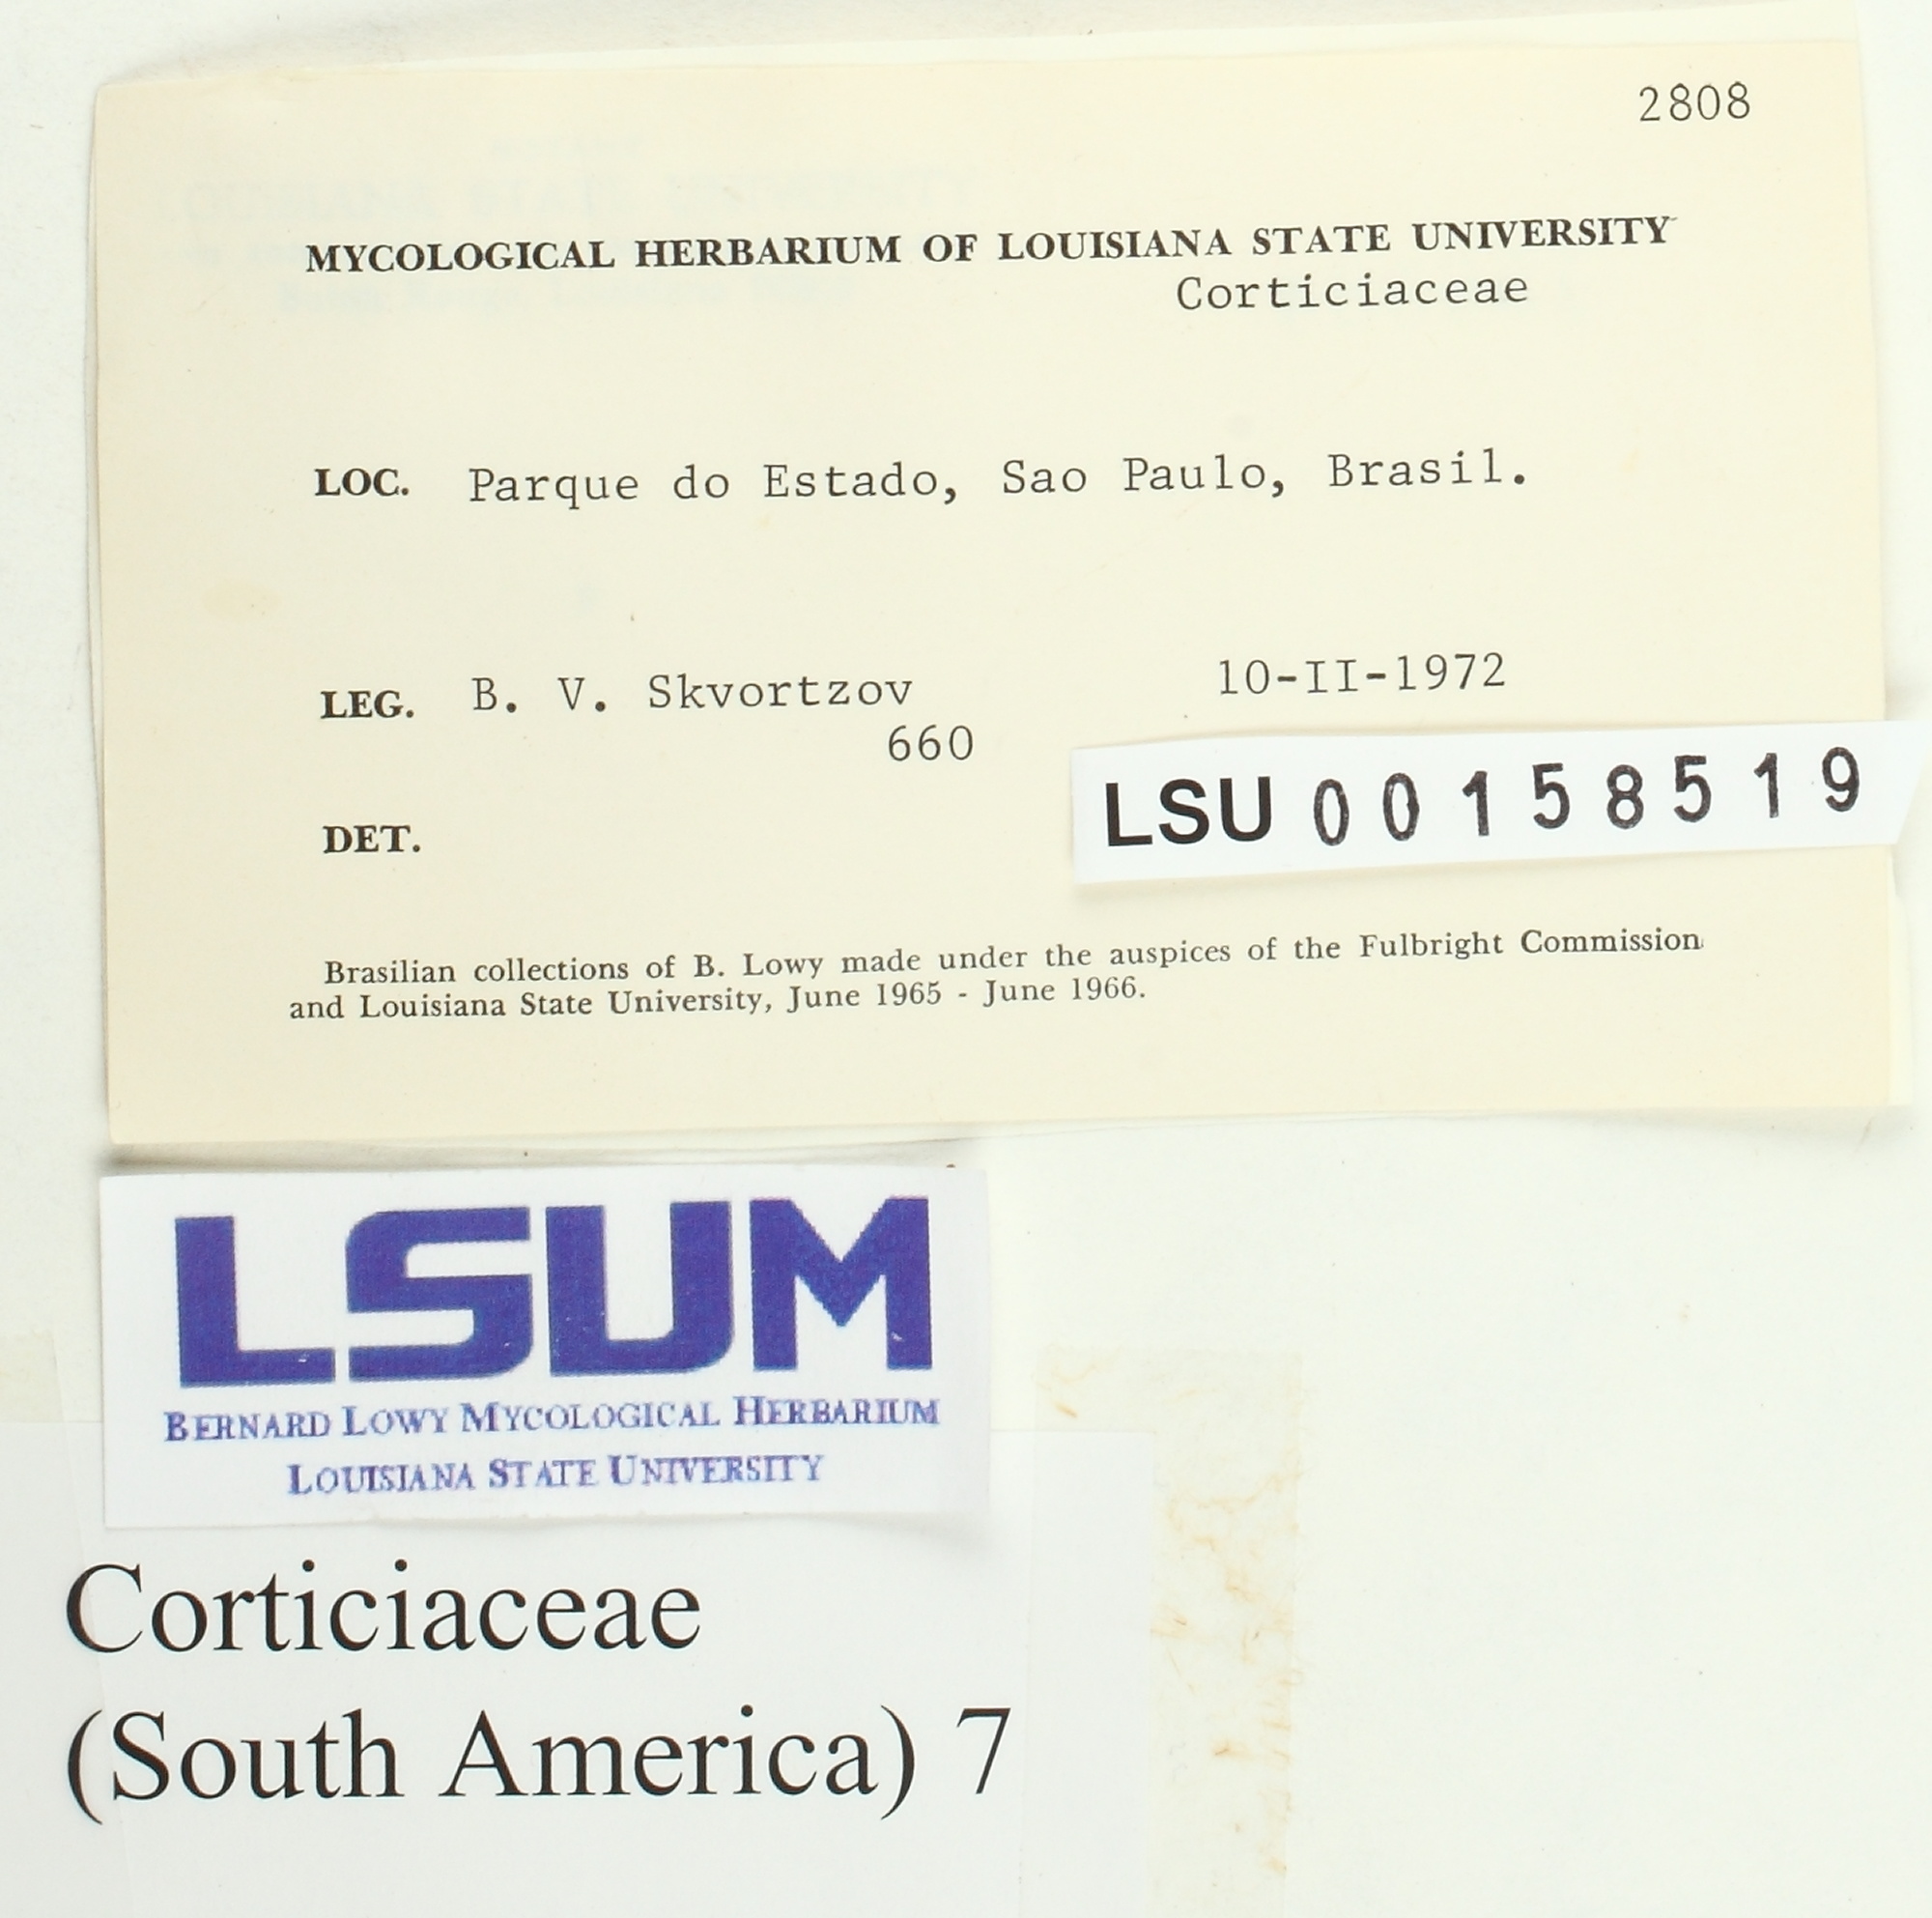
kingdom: Fungi
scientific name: Fungi
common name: Fungi
